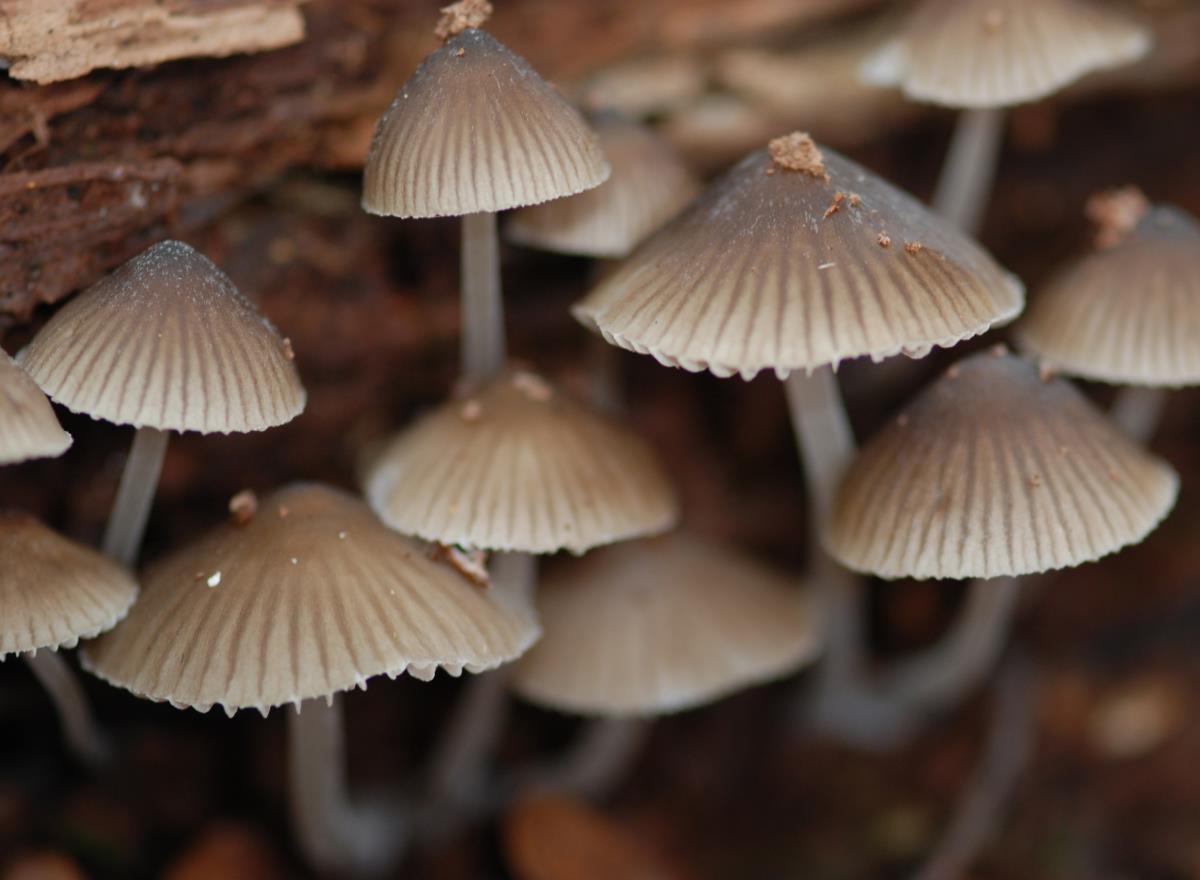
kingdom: Fungi
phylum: Basidiomycota
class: Agaricomycetes
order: Agaricales
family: Mycenaceae
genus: Mycena
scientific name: Mycena
